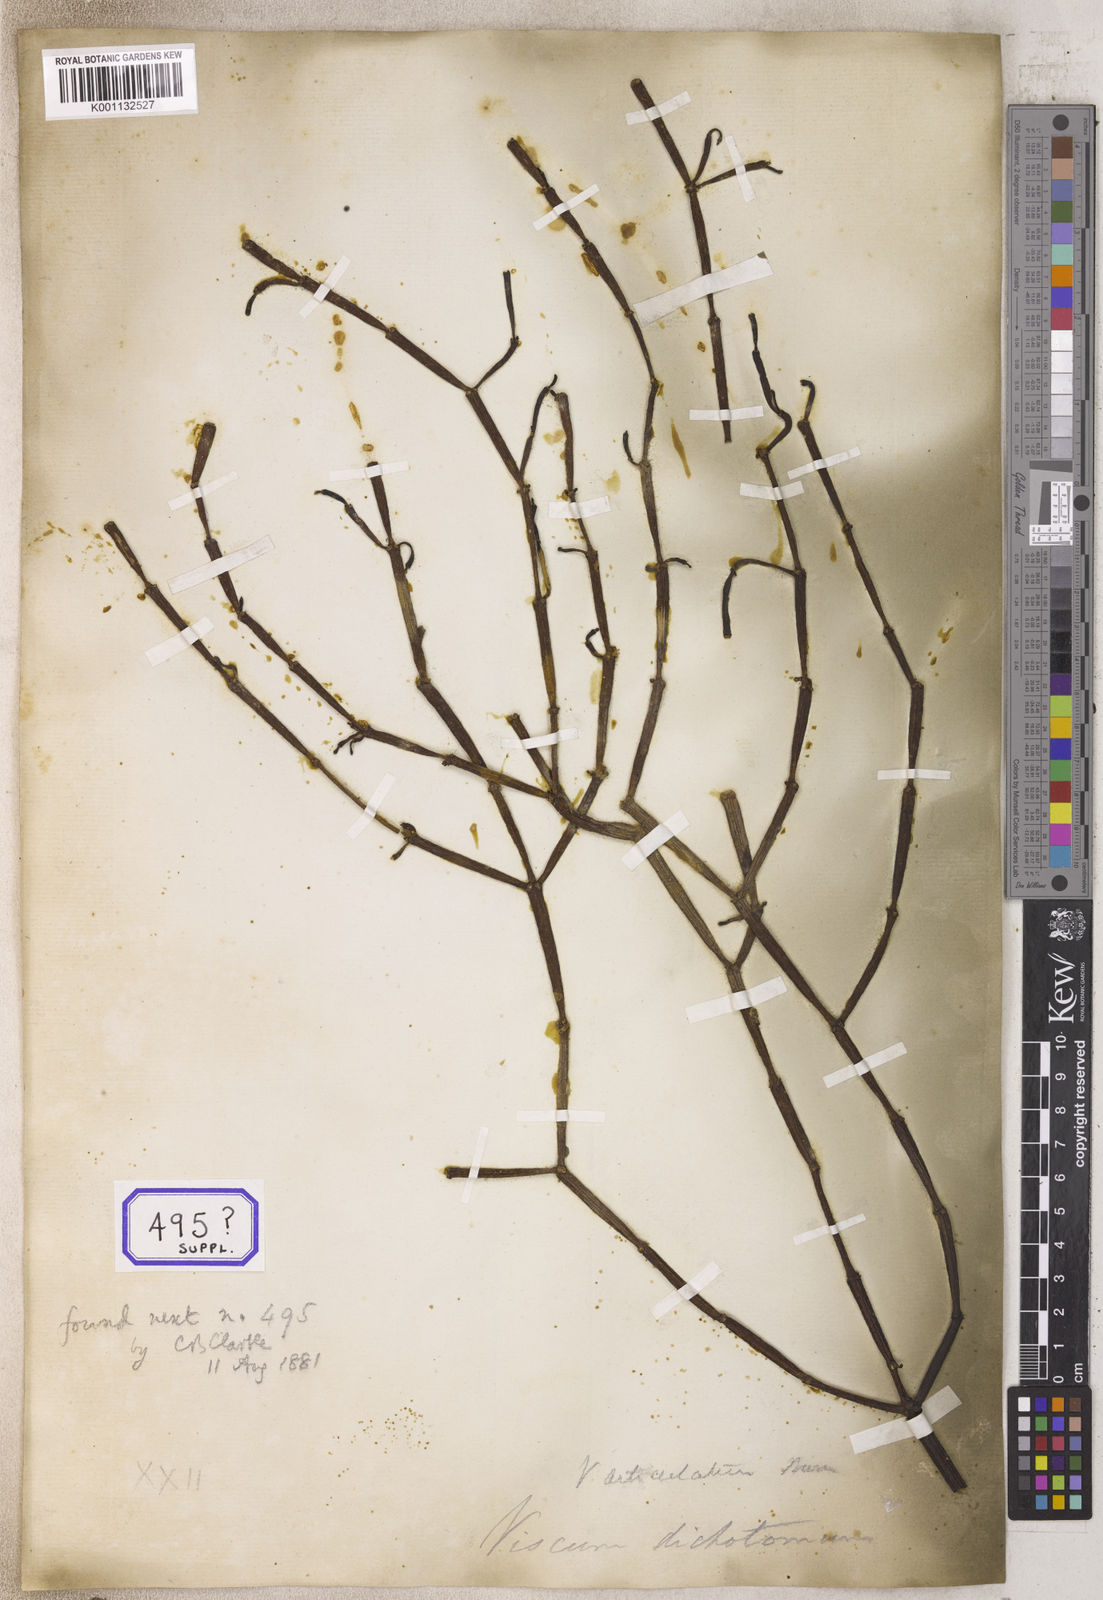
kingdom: Plantae
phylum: Tracheophyta
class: Magnoliopsida
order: Santalales
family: Viscaceae
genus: Viscum
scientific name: Viscum
